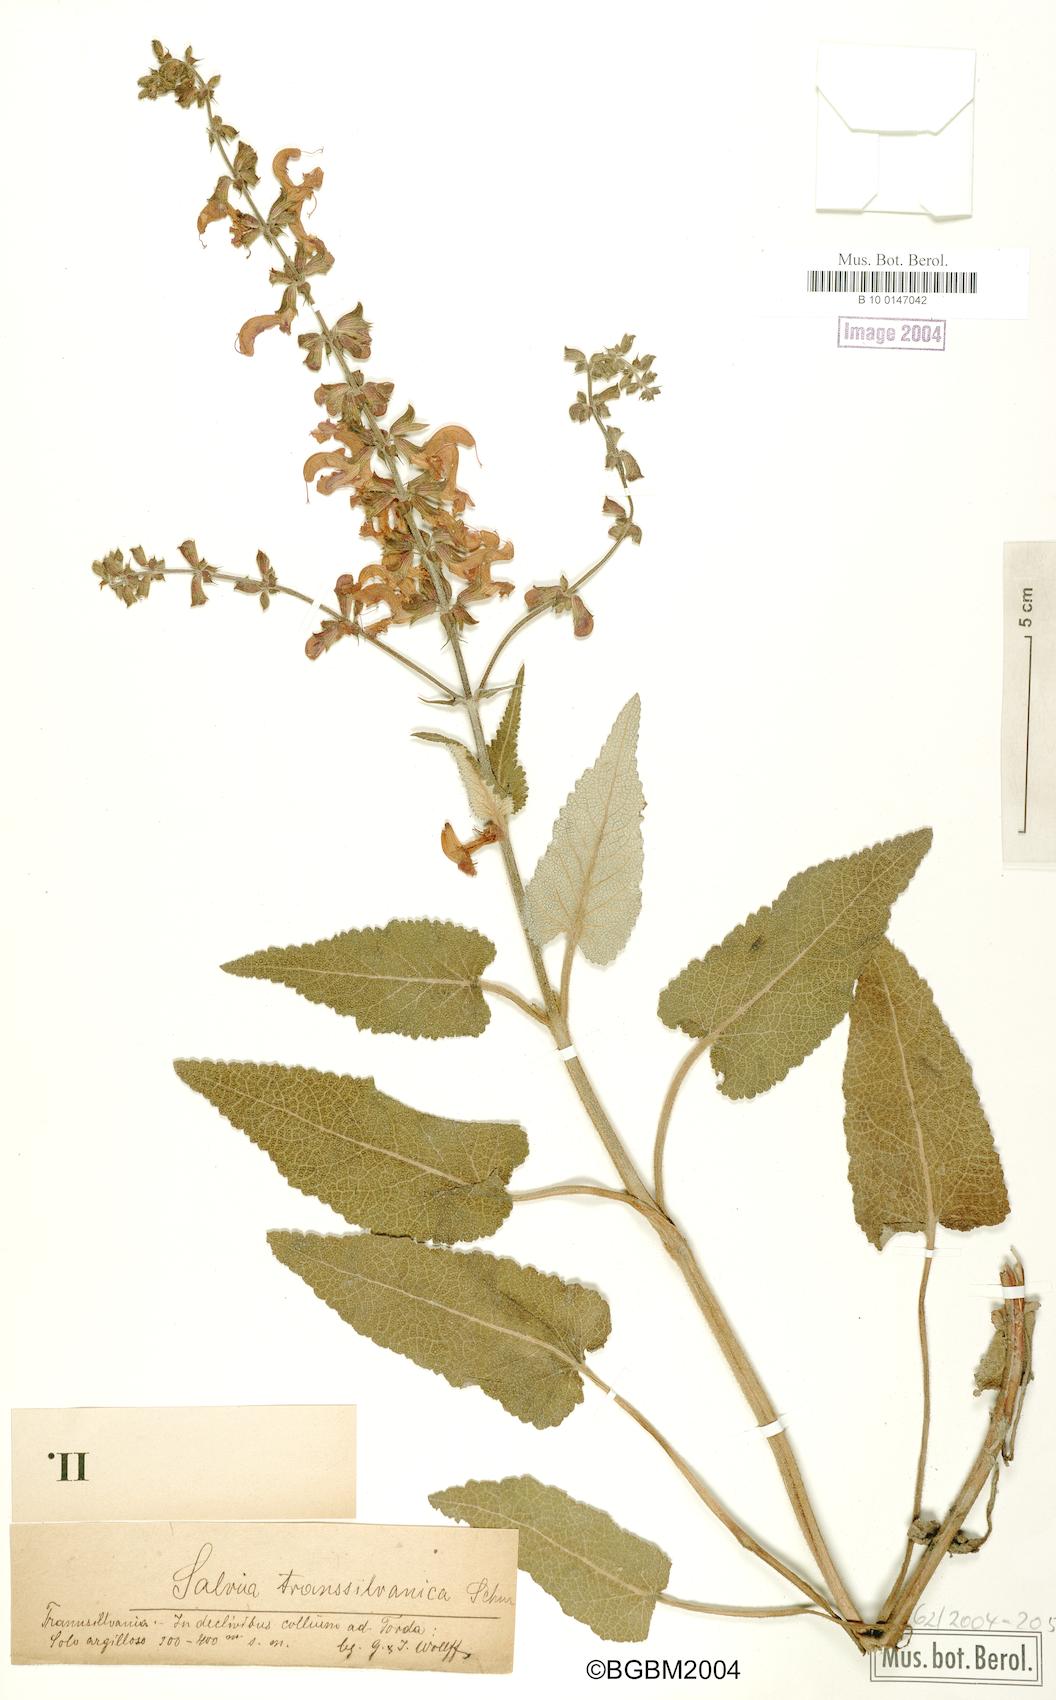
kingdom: Plantae
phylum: Tracheophyta
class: Magnoliopsida
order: Lamiales
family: Lamiaceae
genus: Salvia
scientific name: Salvia transsylvanica
